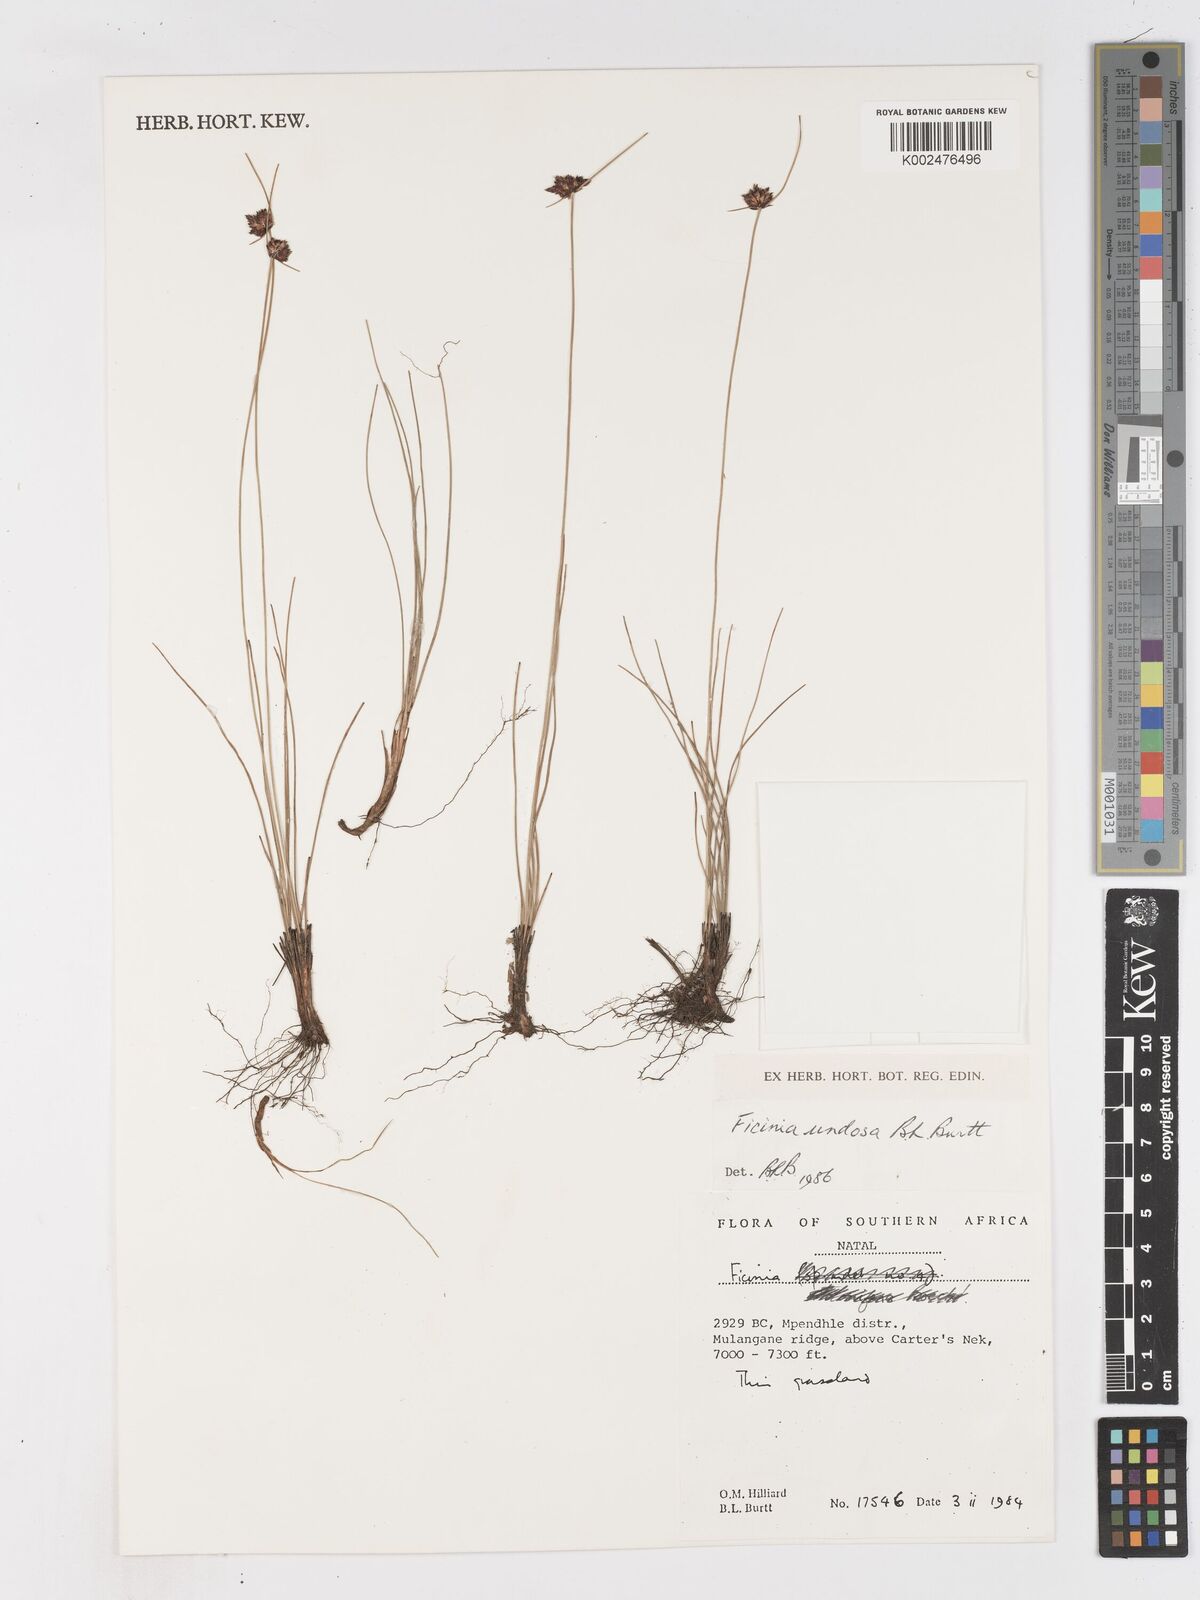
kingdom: Plantae
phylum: Tracheophyta
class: Liliopsida
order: Poales
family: Cyperaceae
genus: Ficinia
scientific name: Ficinia undosa
